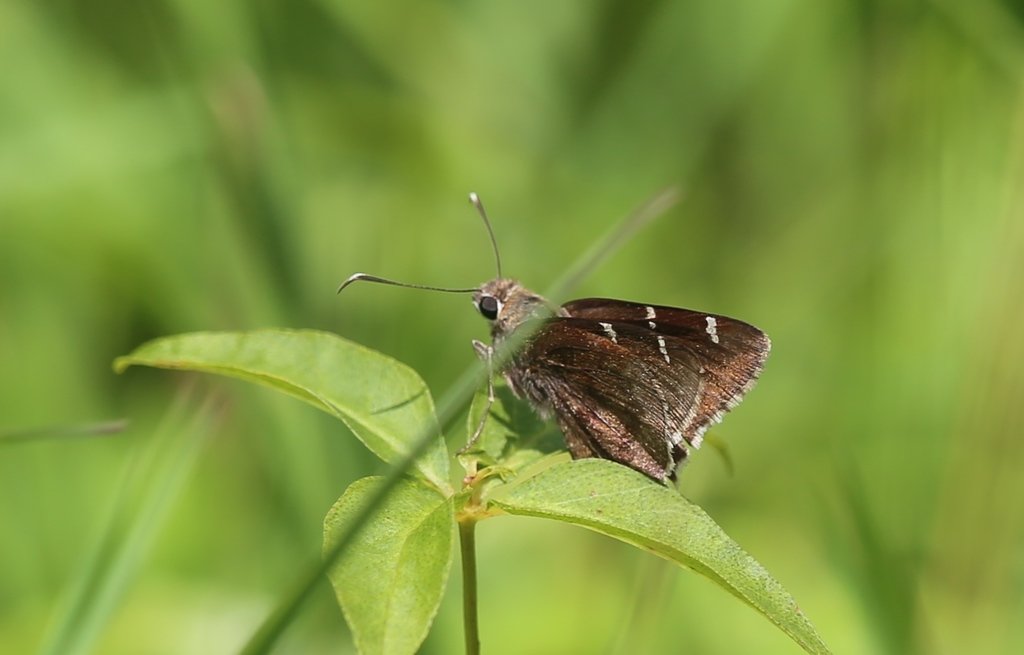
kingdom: Animalia
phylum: Arthropoda
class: Insecta
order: Lepidoptera
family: Hesperiidae
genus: Autochton
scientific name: Autochton
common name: Southern Cloudywing
